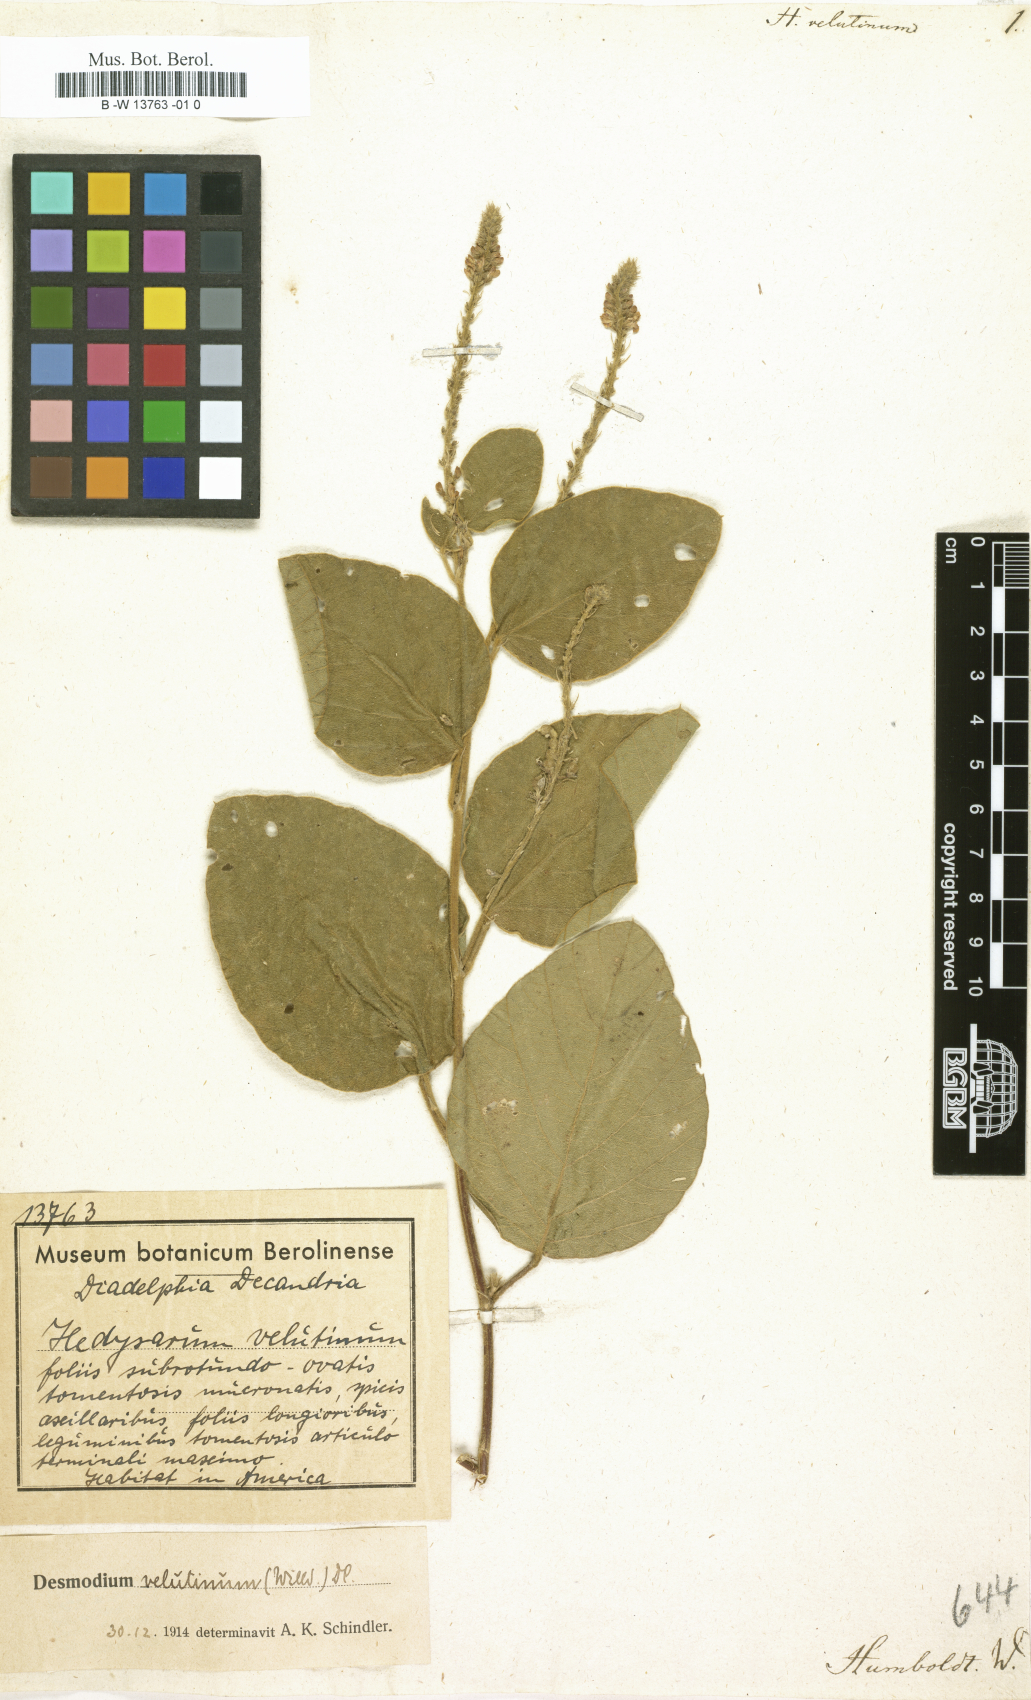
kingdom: Plantae
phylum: Tracheophyta
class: Magnoliopsida
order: Fabales
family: Fabaceae
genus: Polhillides
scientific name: Polhillides velutina
